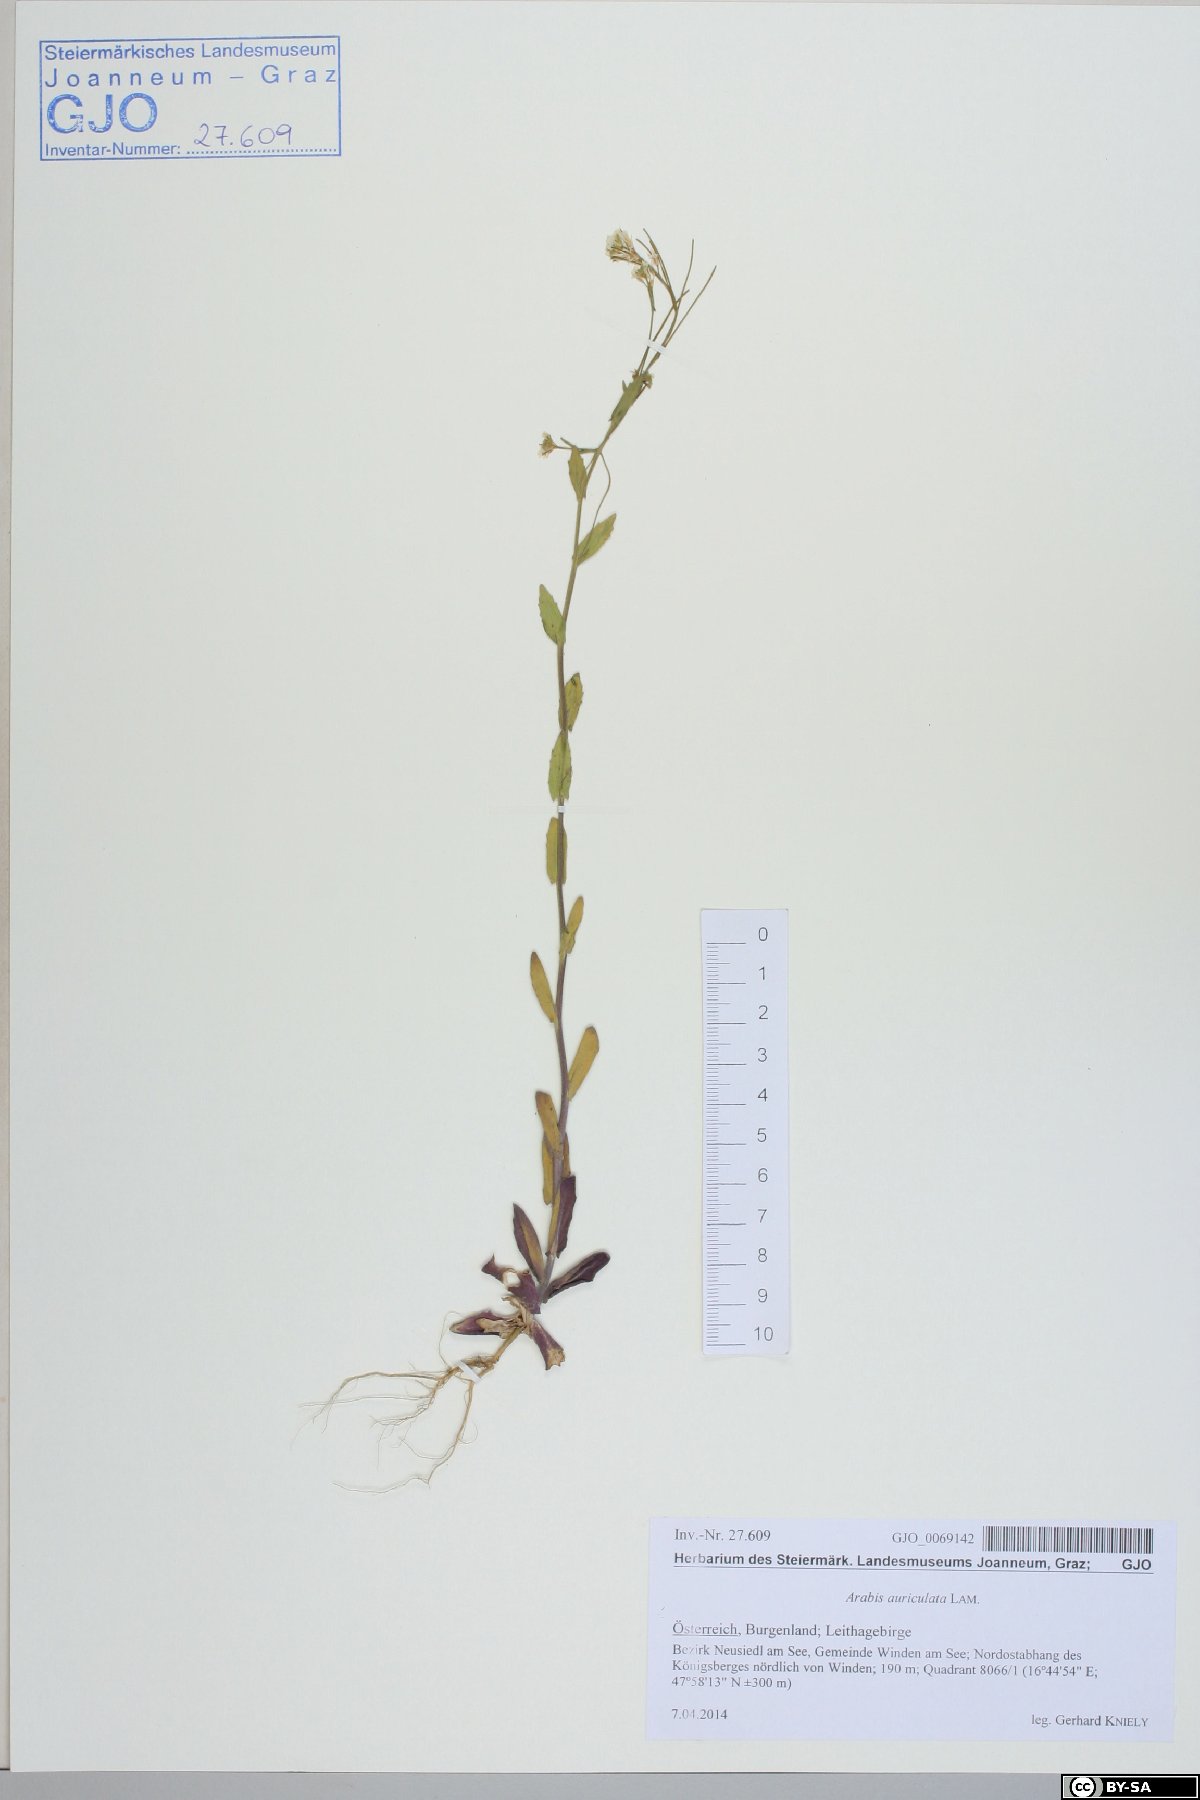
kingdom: Plantae
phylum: Tracheophyta
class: Magnoliopsida
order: Brassicales
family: Brassicaceae
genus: Arabis
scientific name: Arabis auriculata
